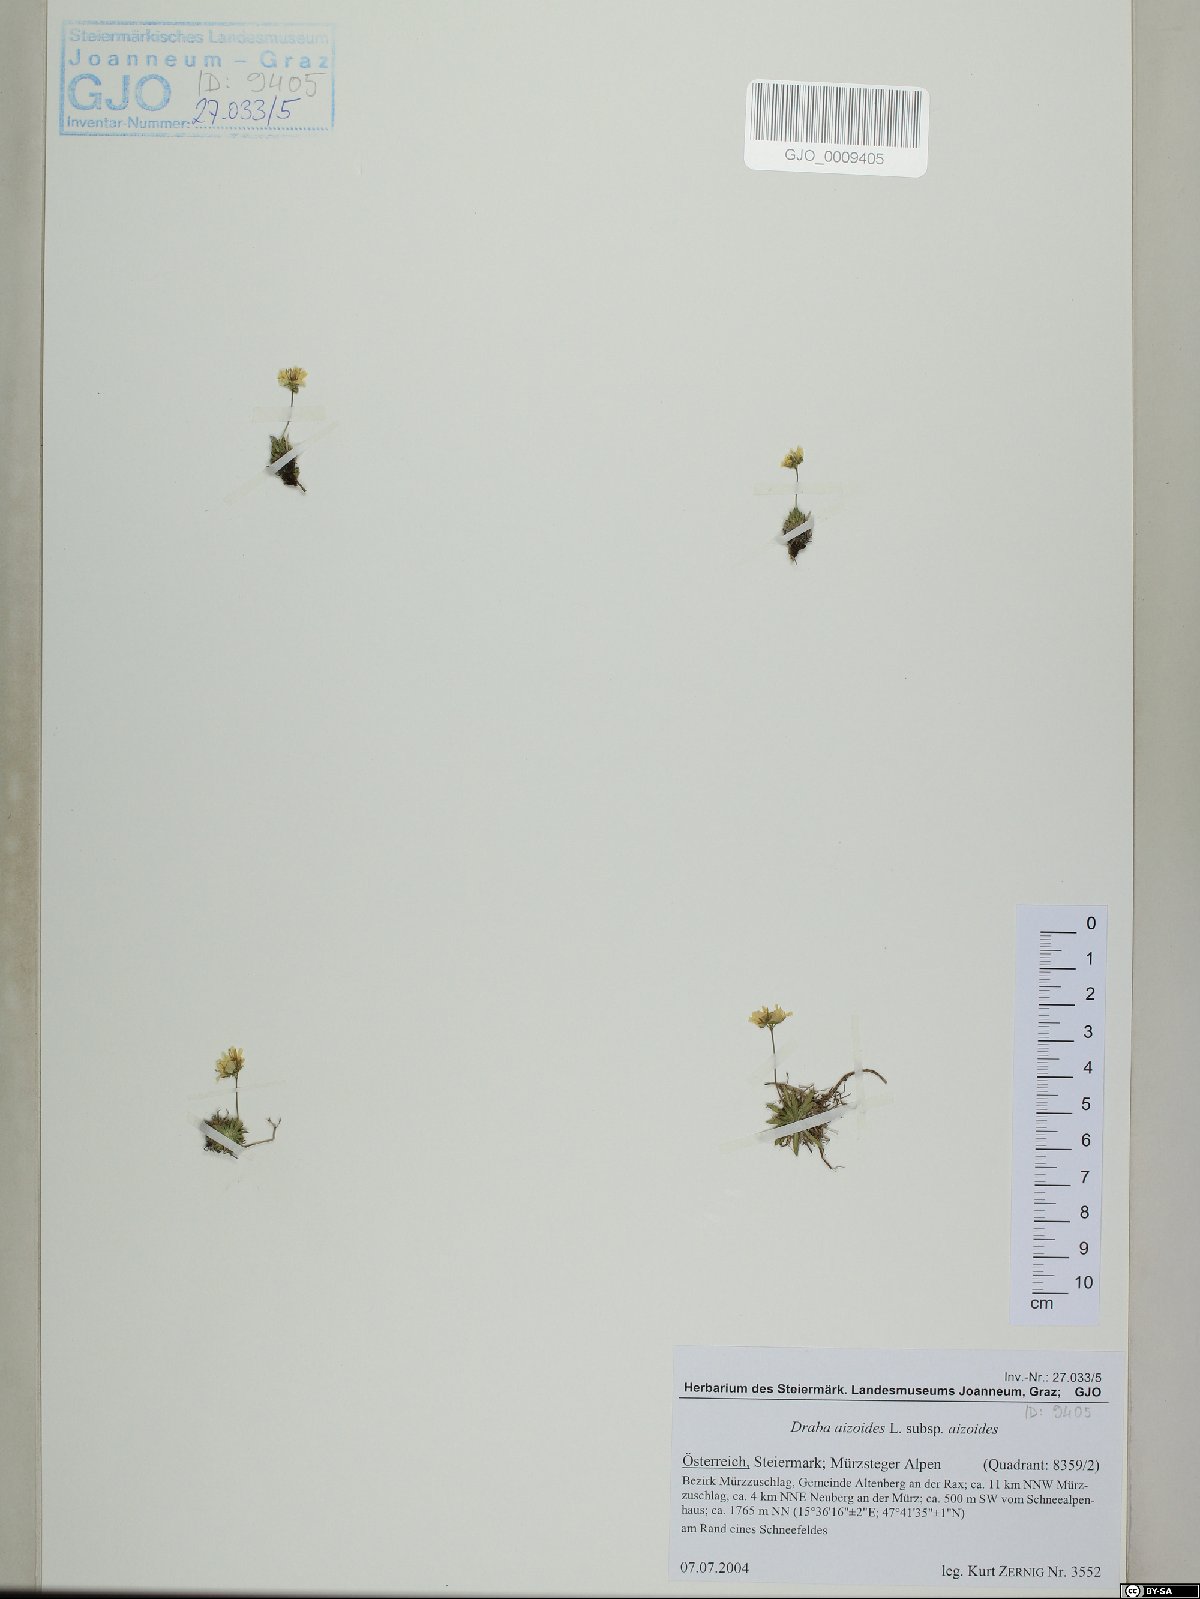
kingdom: Plantae
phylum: Tracheophyta
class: Magnoliopsida
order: Brassicales
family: Brassicaceae
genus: Draba
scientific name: Draba aizoides
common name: Yellow whitlowgrass
